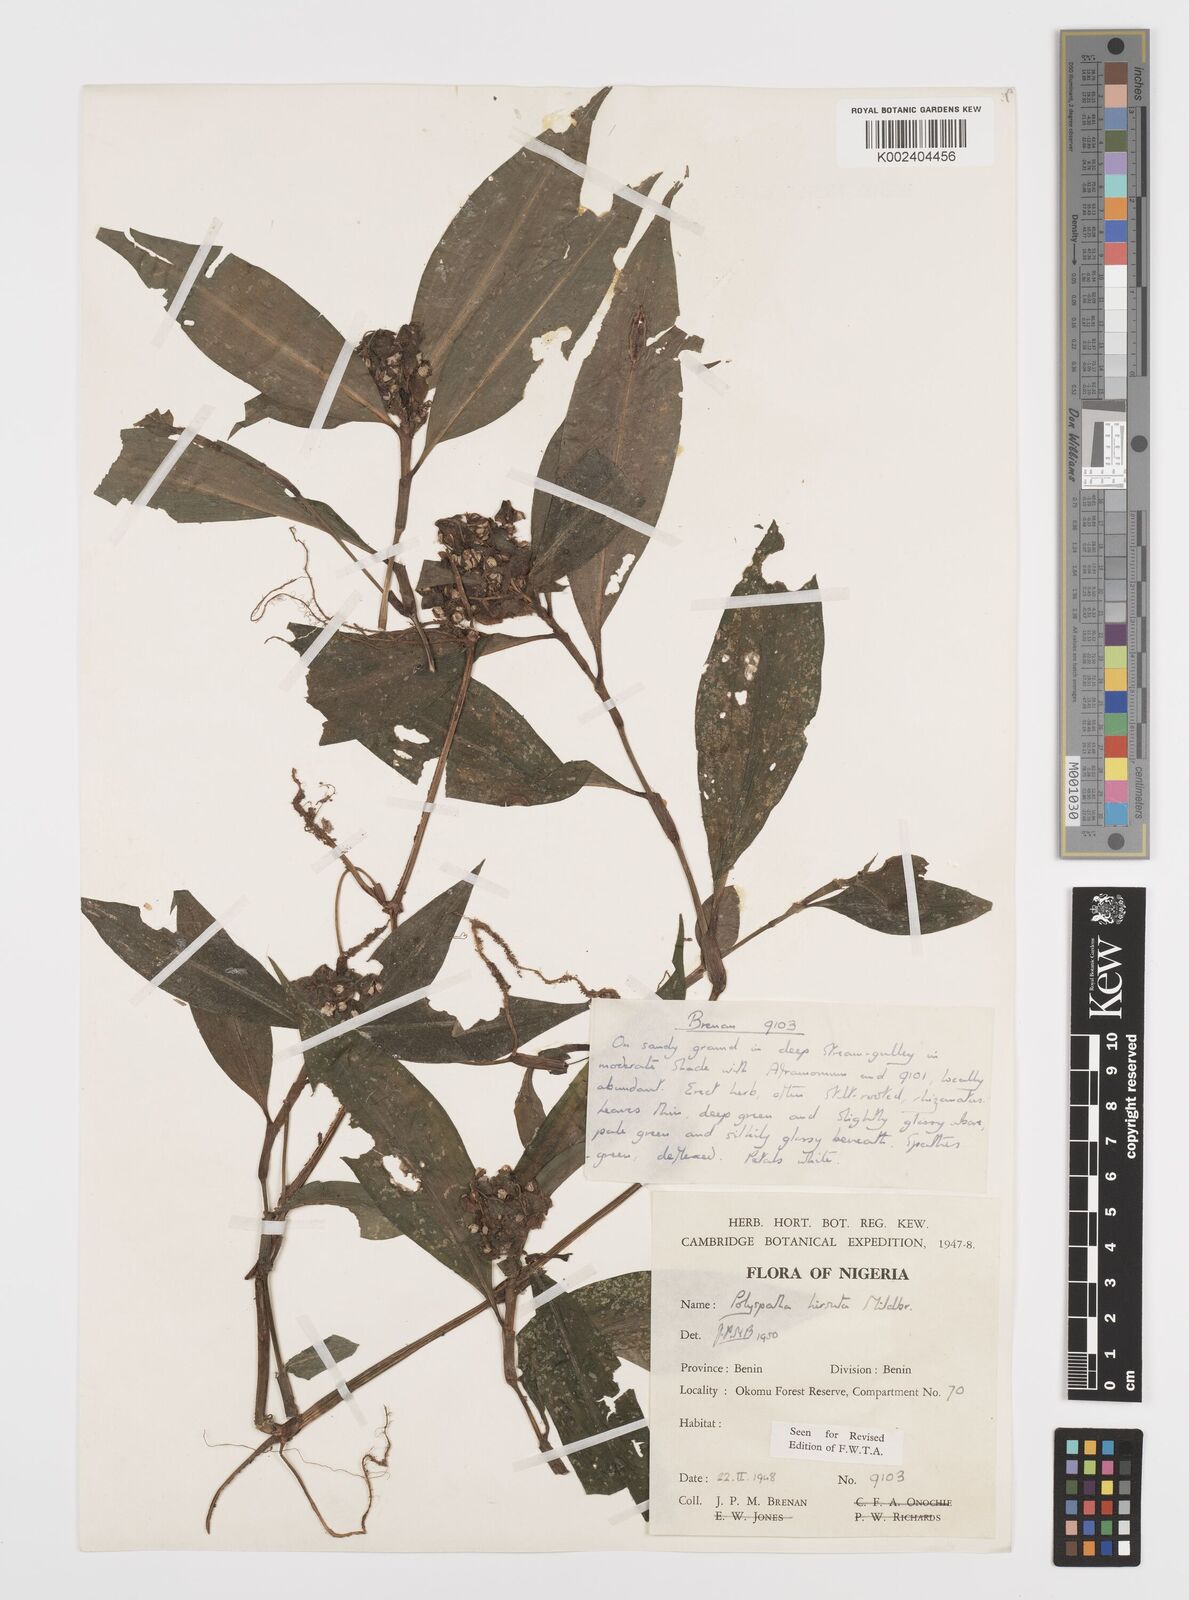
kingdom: Plantae
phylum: Tracheophyta
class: Liliopsida
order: Commelinales
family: Commelinaceae
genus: Polyspatha
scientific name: Polyspatha hirsuta
